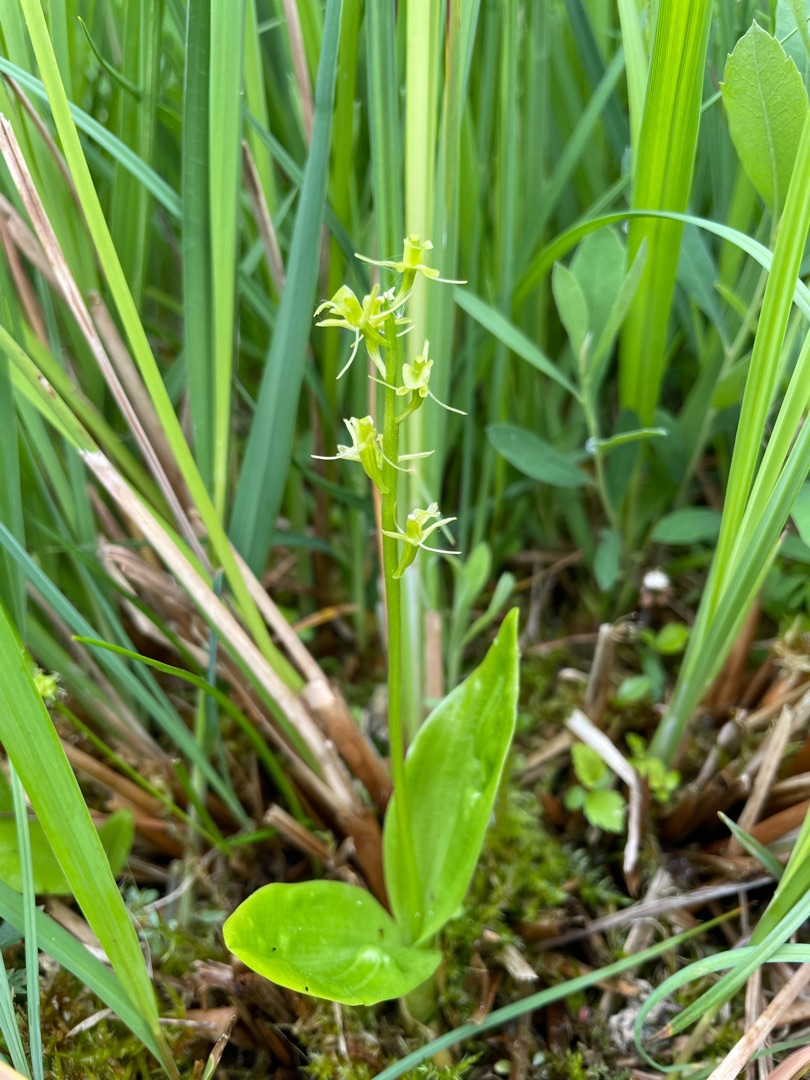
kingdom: Animalia
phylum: Arthropoda
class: Insecta
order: Coleoptera
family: Curculionidae
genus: Liparis
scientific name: Liparis loeselii
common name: Mygblomst
